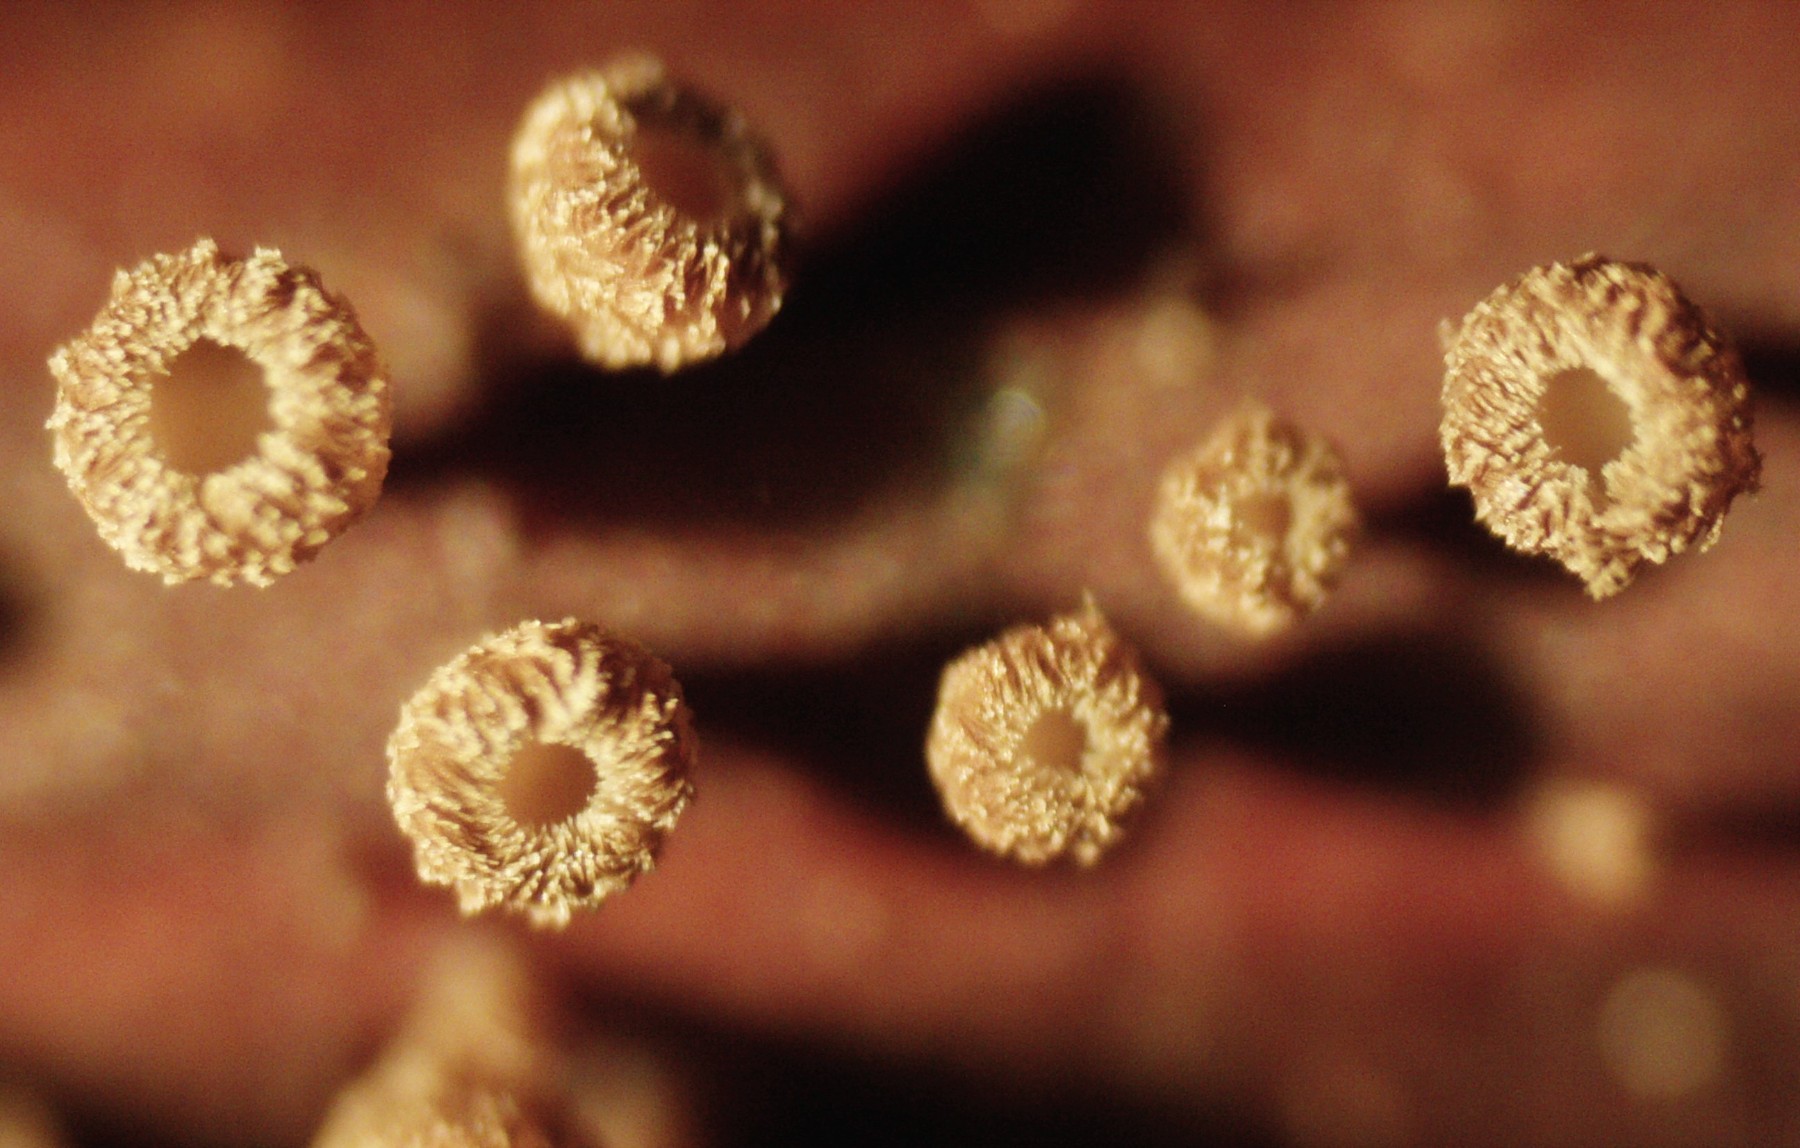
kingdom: Fungi
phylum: Ascomycota
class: Leotiomycetes
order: Helotiales
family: Lachnaceae
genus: Brunnipila
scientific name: Brunnipila clandestina
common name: hindbær-frynseskive
